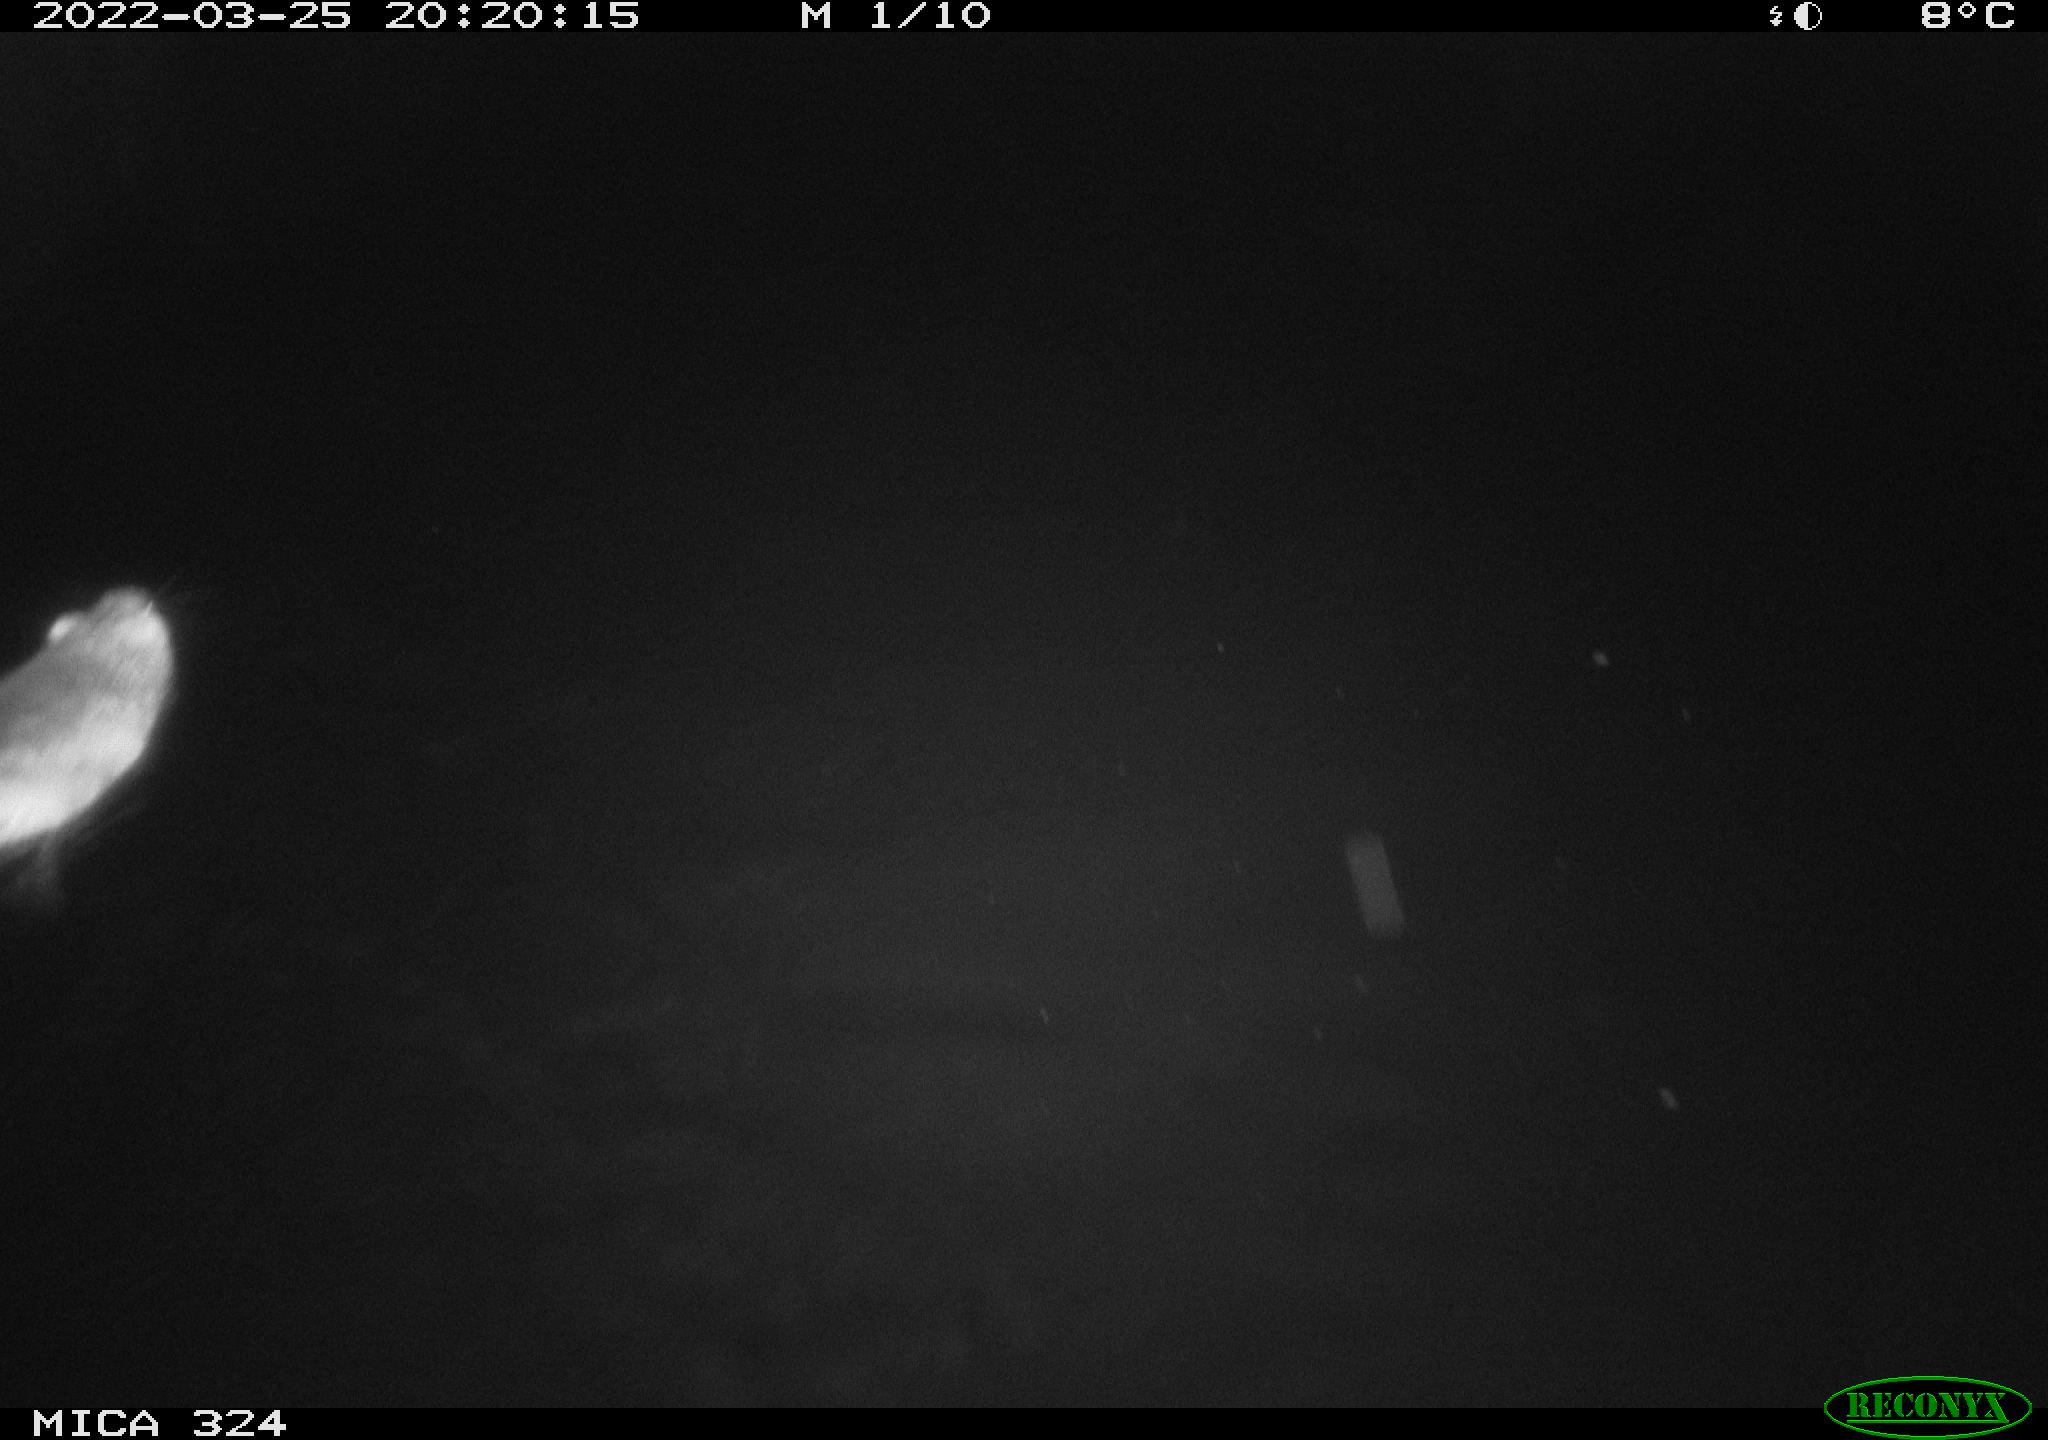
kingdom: Animalia
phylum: Chordata
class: Mammalia
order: Rodentia
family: Cricetidae
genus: Ondatra
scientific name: Ondatra zibethicus
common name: Muskrat
